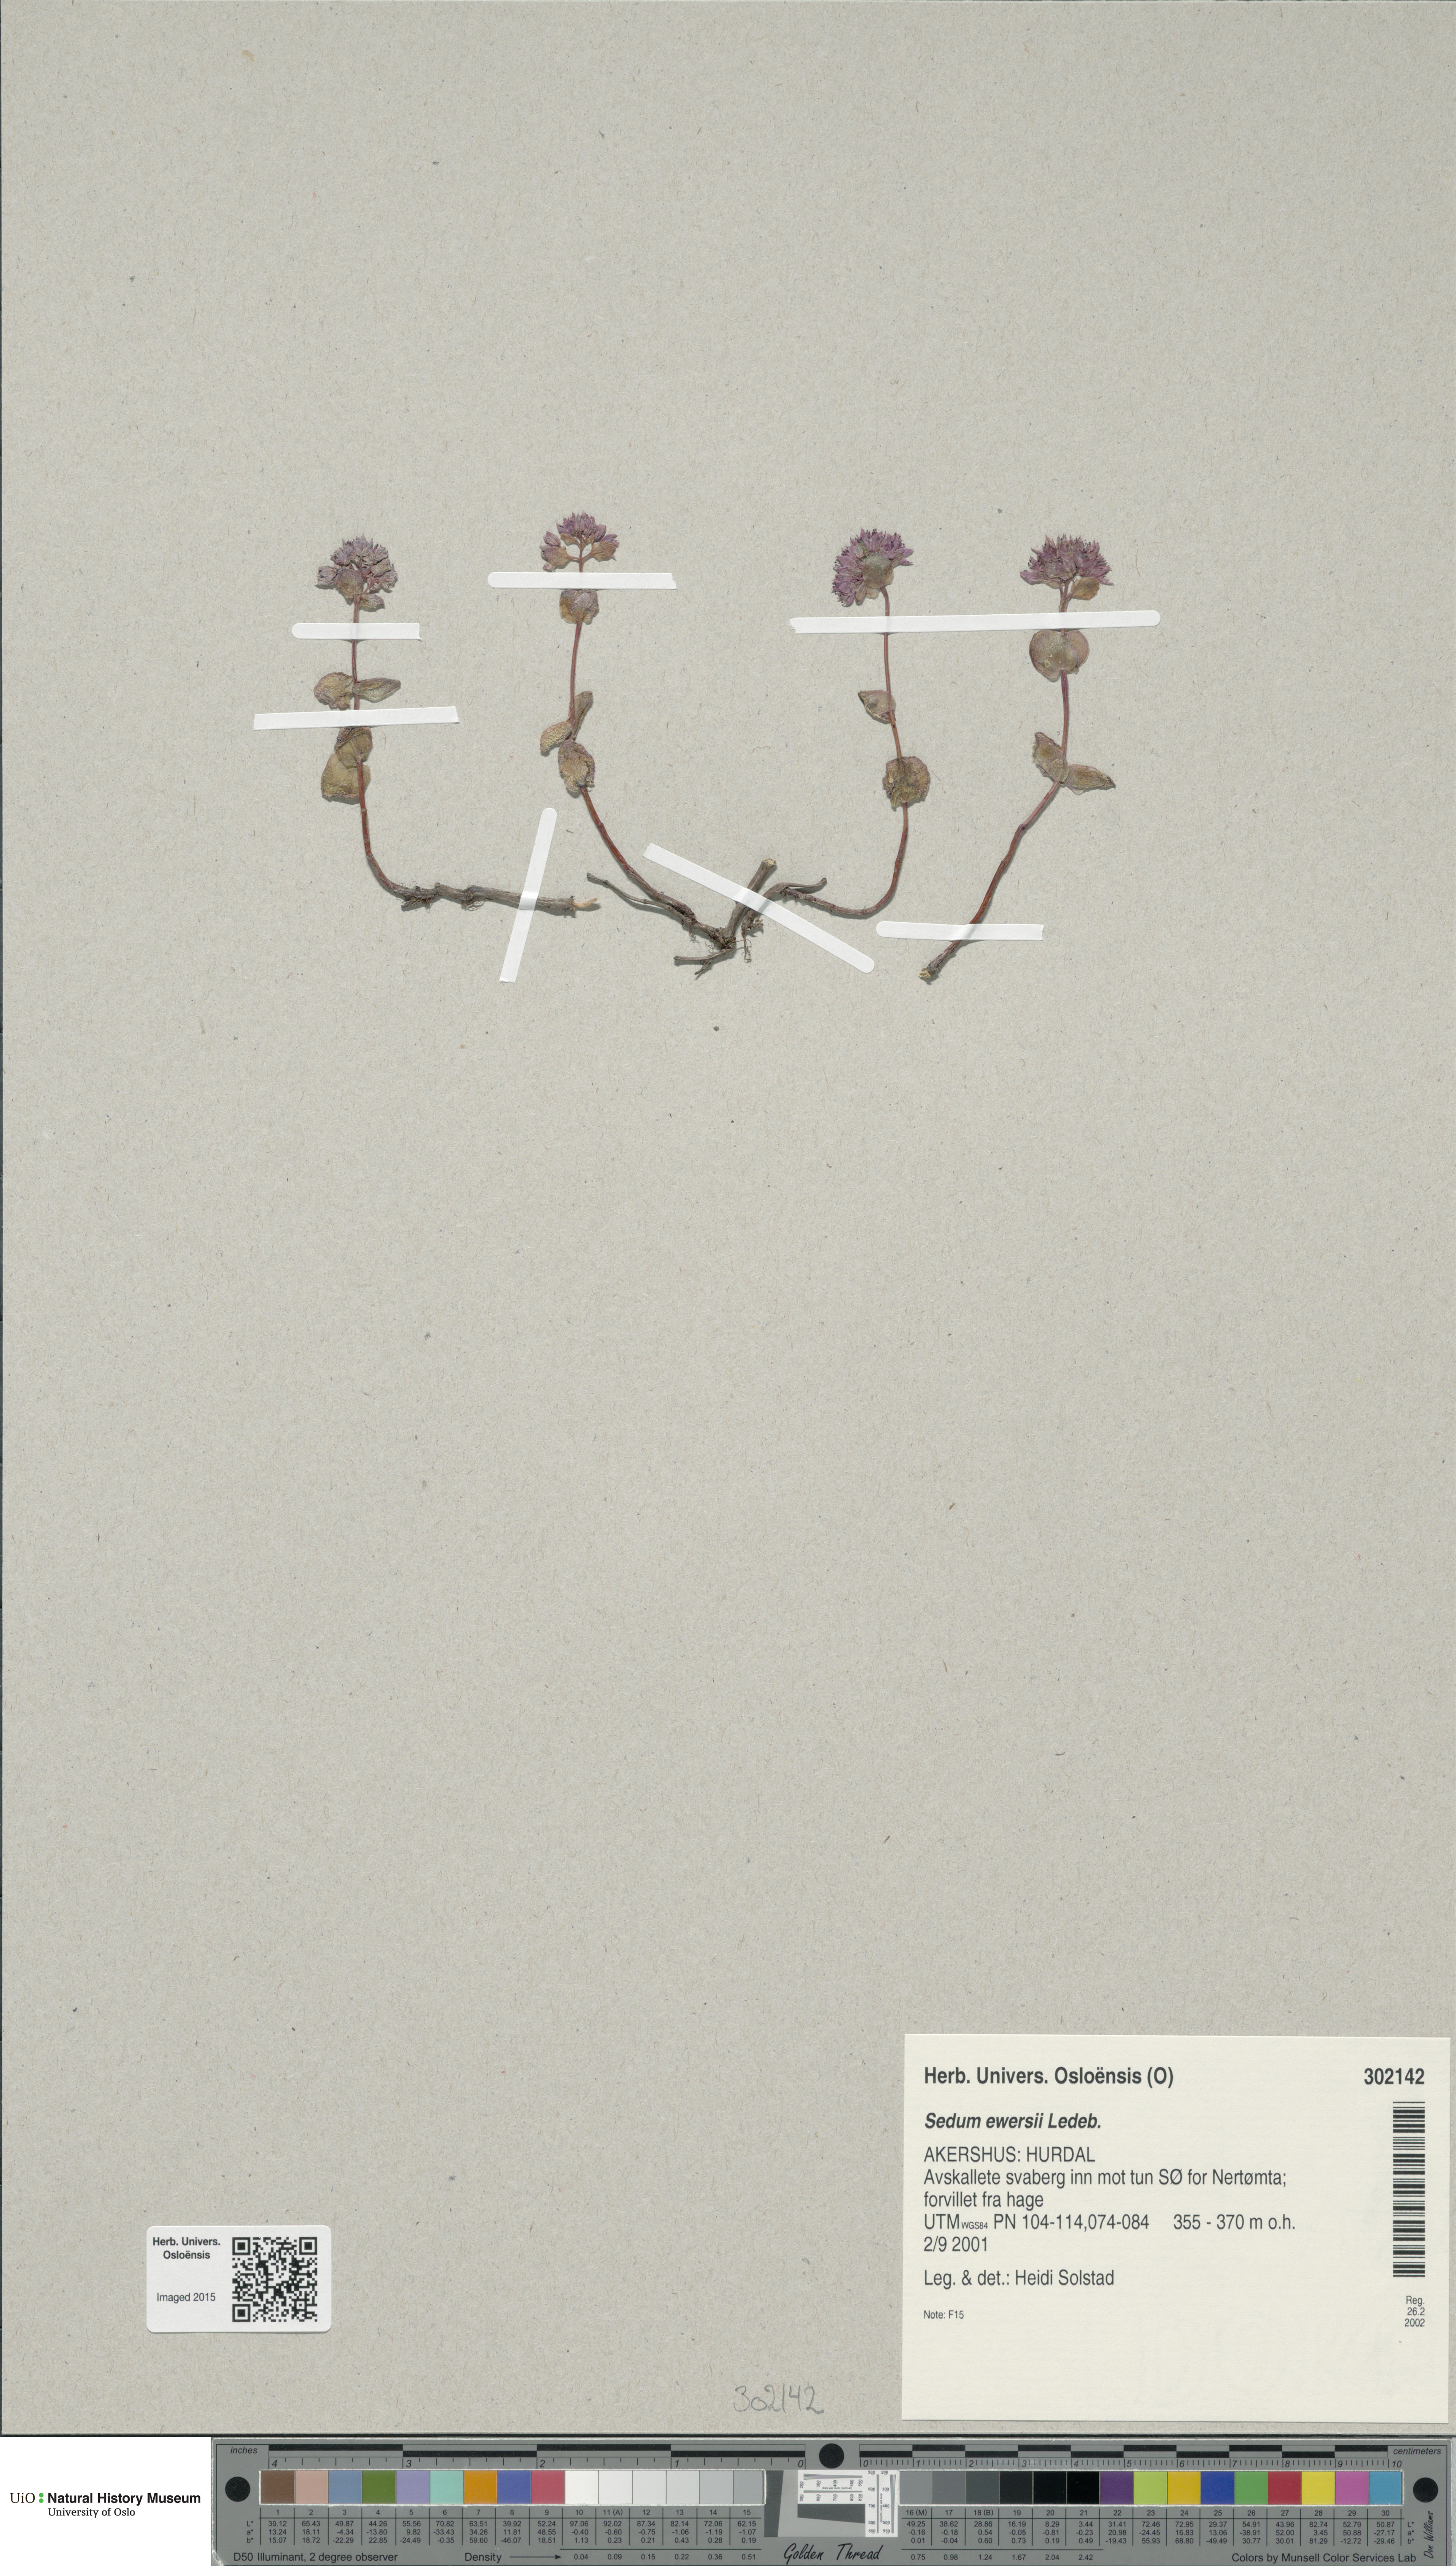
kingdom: Plantae
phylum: Tracheophyta
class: Magnoliopsida
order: Saxifragales
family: Crassulaceae
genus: Hylotelephium
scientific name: Hylotelephium ewersii
